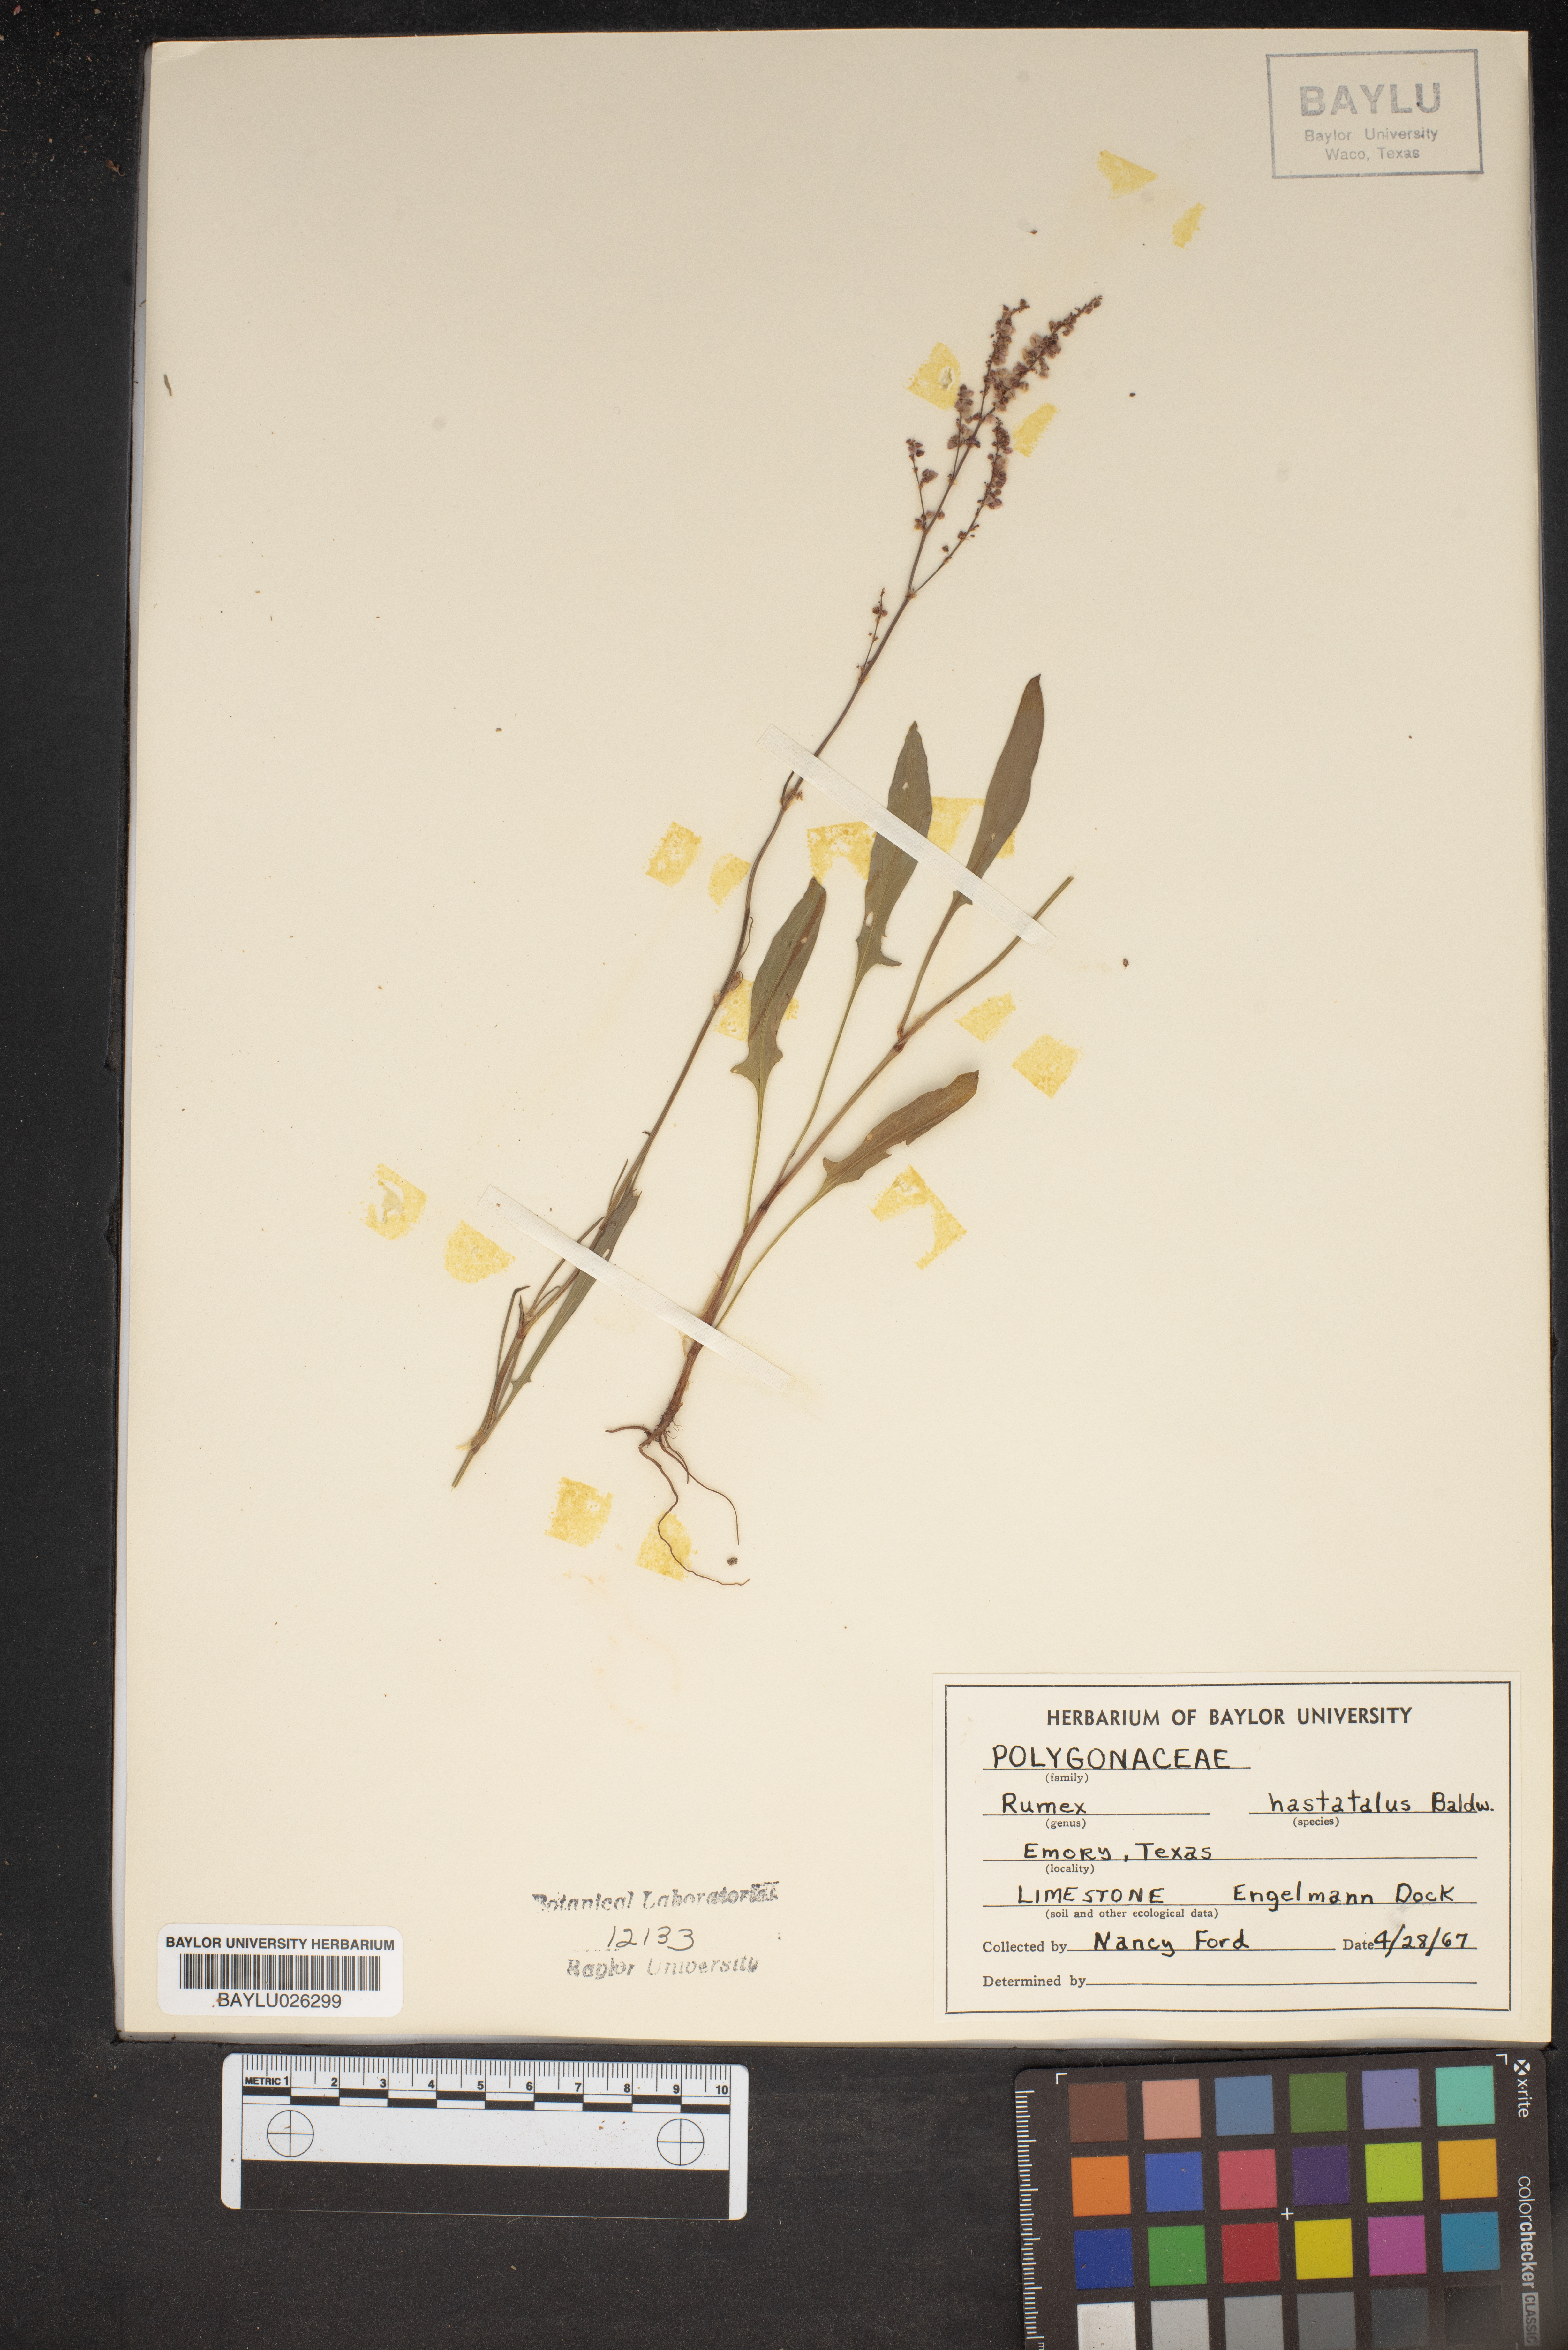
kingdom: Plantae
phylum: Tracheophyta
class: Magnoliopsida
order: Caryophyllales
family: Polygonaceae
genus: Rumex
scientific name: Rumex hastatulus
